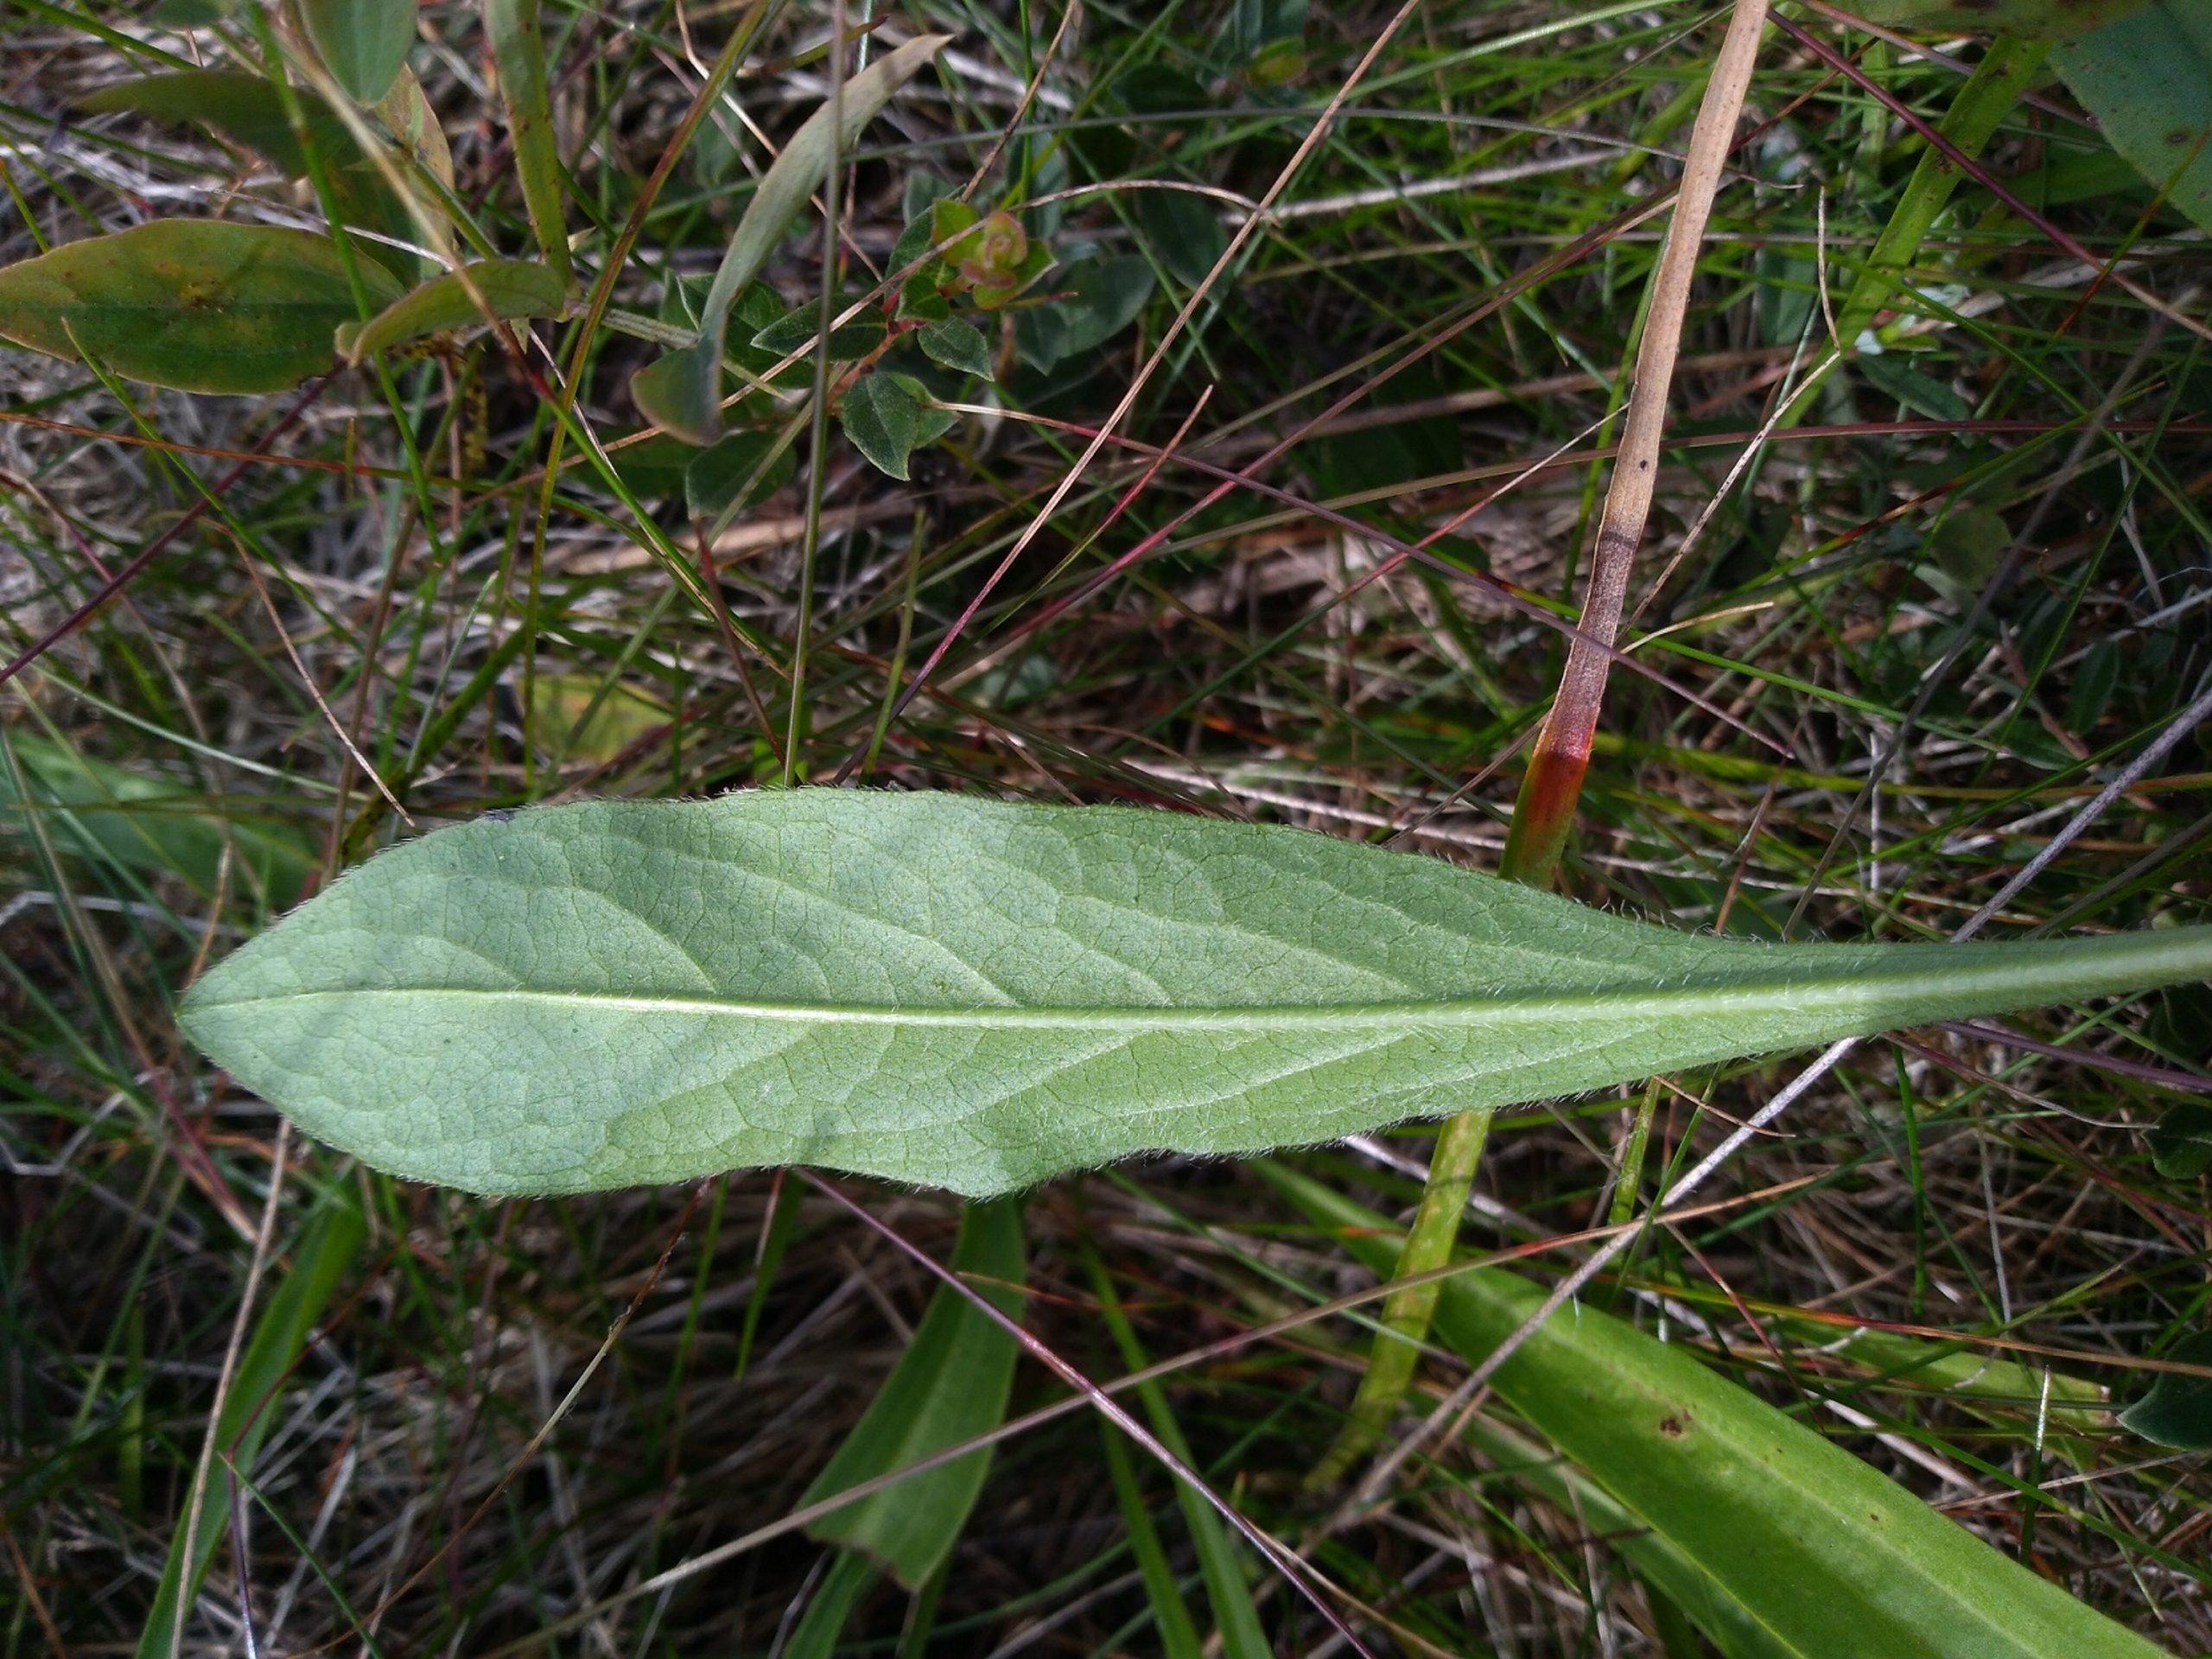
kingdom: Plantae
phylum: Tracheophyta
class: Magnoliopsida
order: Dipsacales
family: Caprifoliaceae
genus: Succisa
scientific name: Succisa pratensis
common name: Djævelsbid
